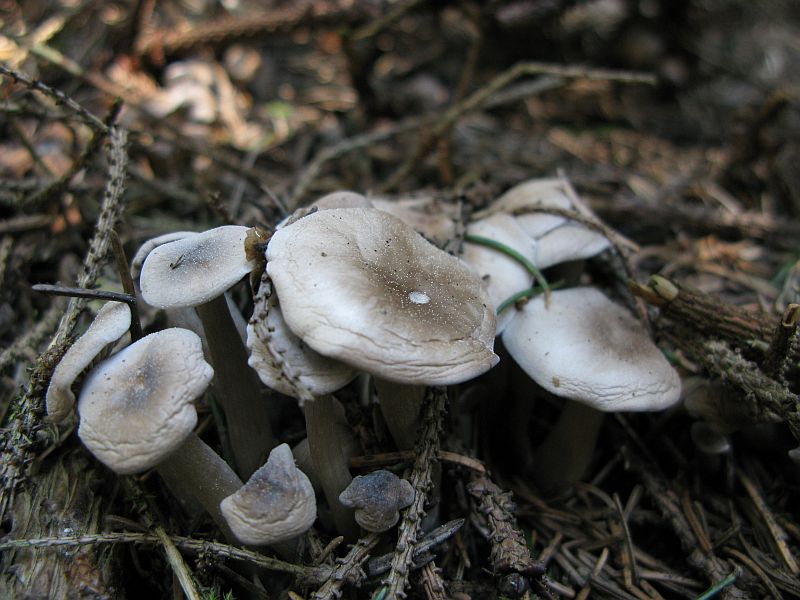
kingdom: Fungi
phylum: Basidiomycota
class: Agaricomycetes
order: Agaricales
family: Tricholomataceae
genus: Clitocybe
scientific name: Clitocybe metachroa
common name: grå tragthat
